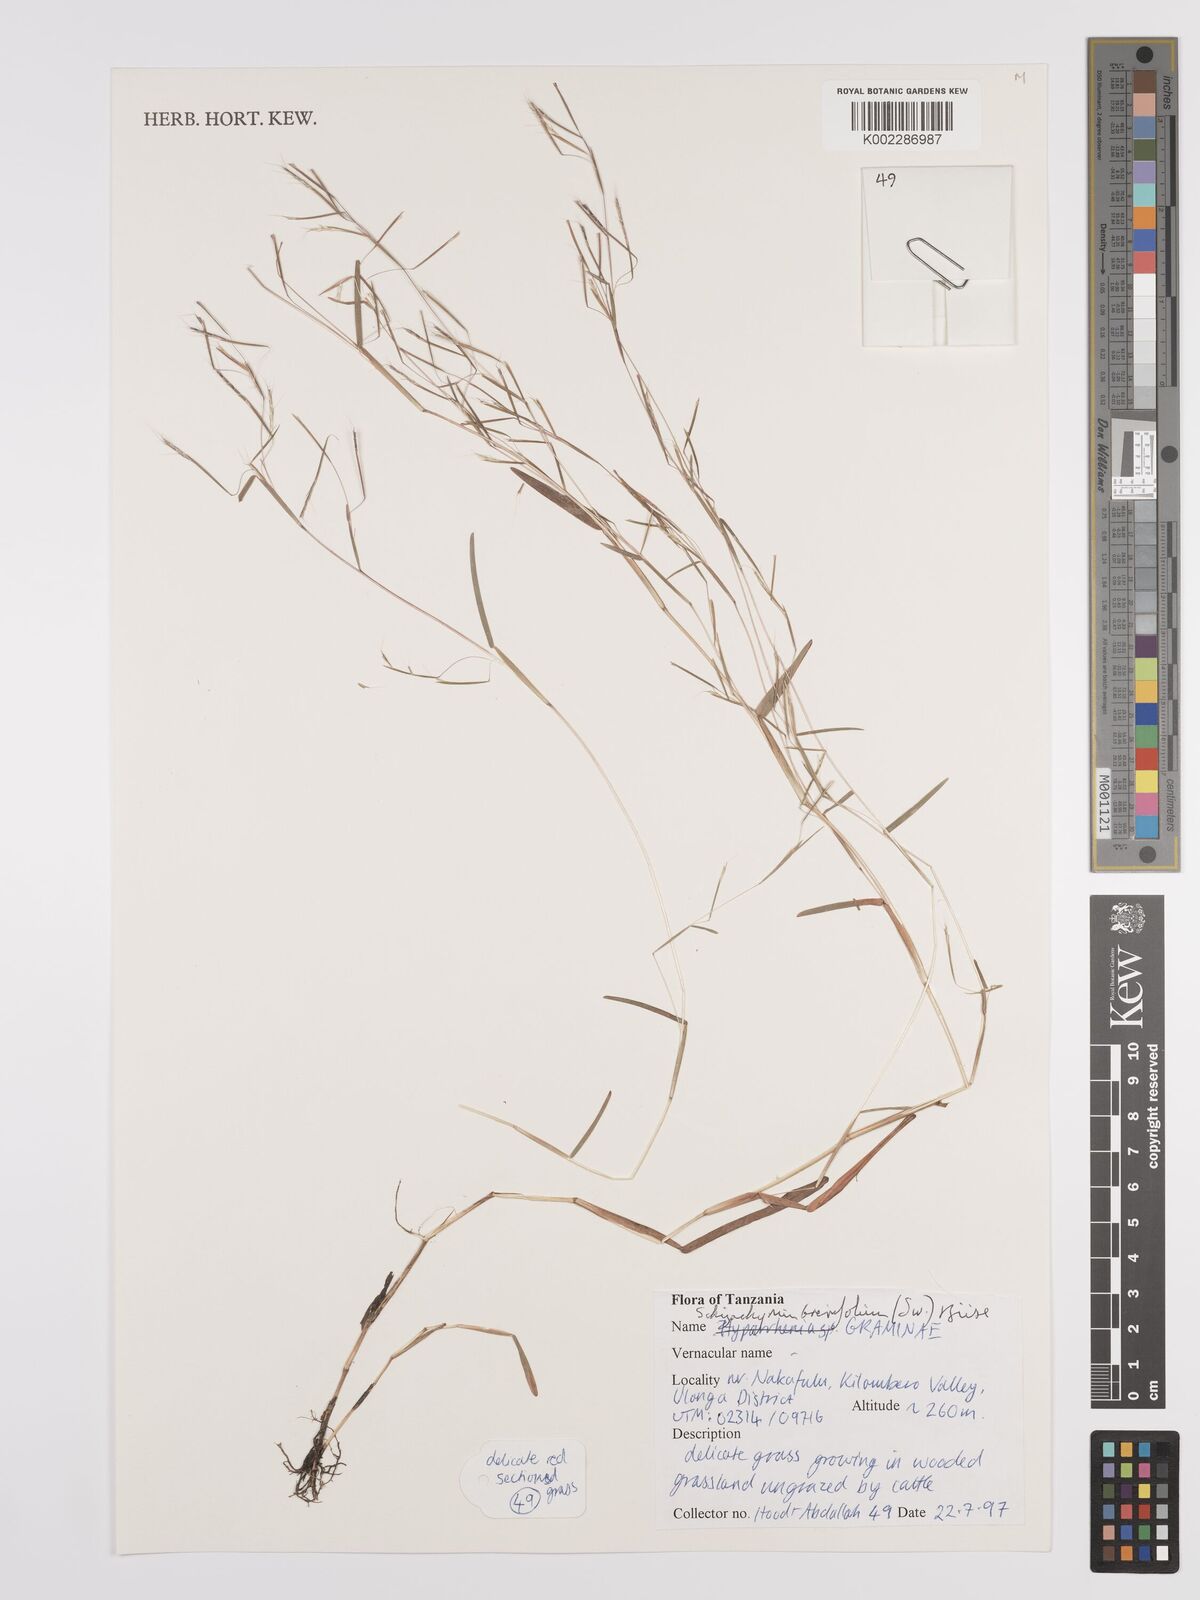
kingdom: Plantae
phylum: Tracheophyta
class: Liliopsida
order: Poales
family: Poaceae
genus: Schizachyrium
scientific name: Schizachyrium brevifolium
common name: Serillo dulce
